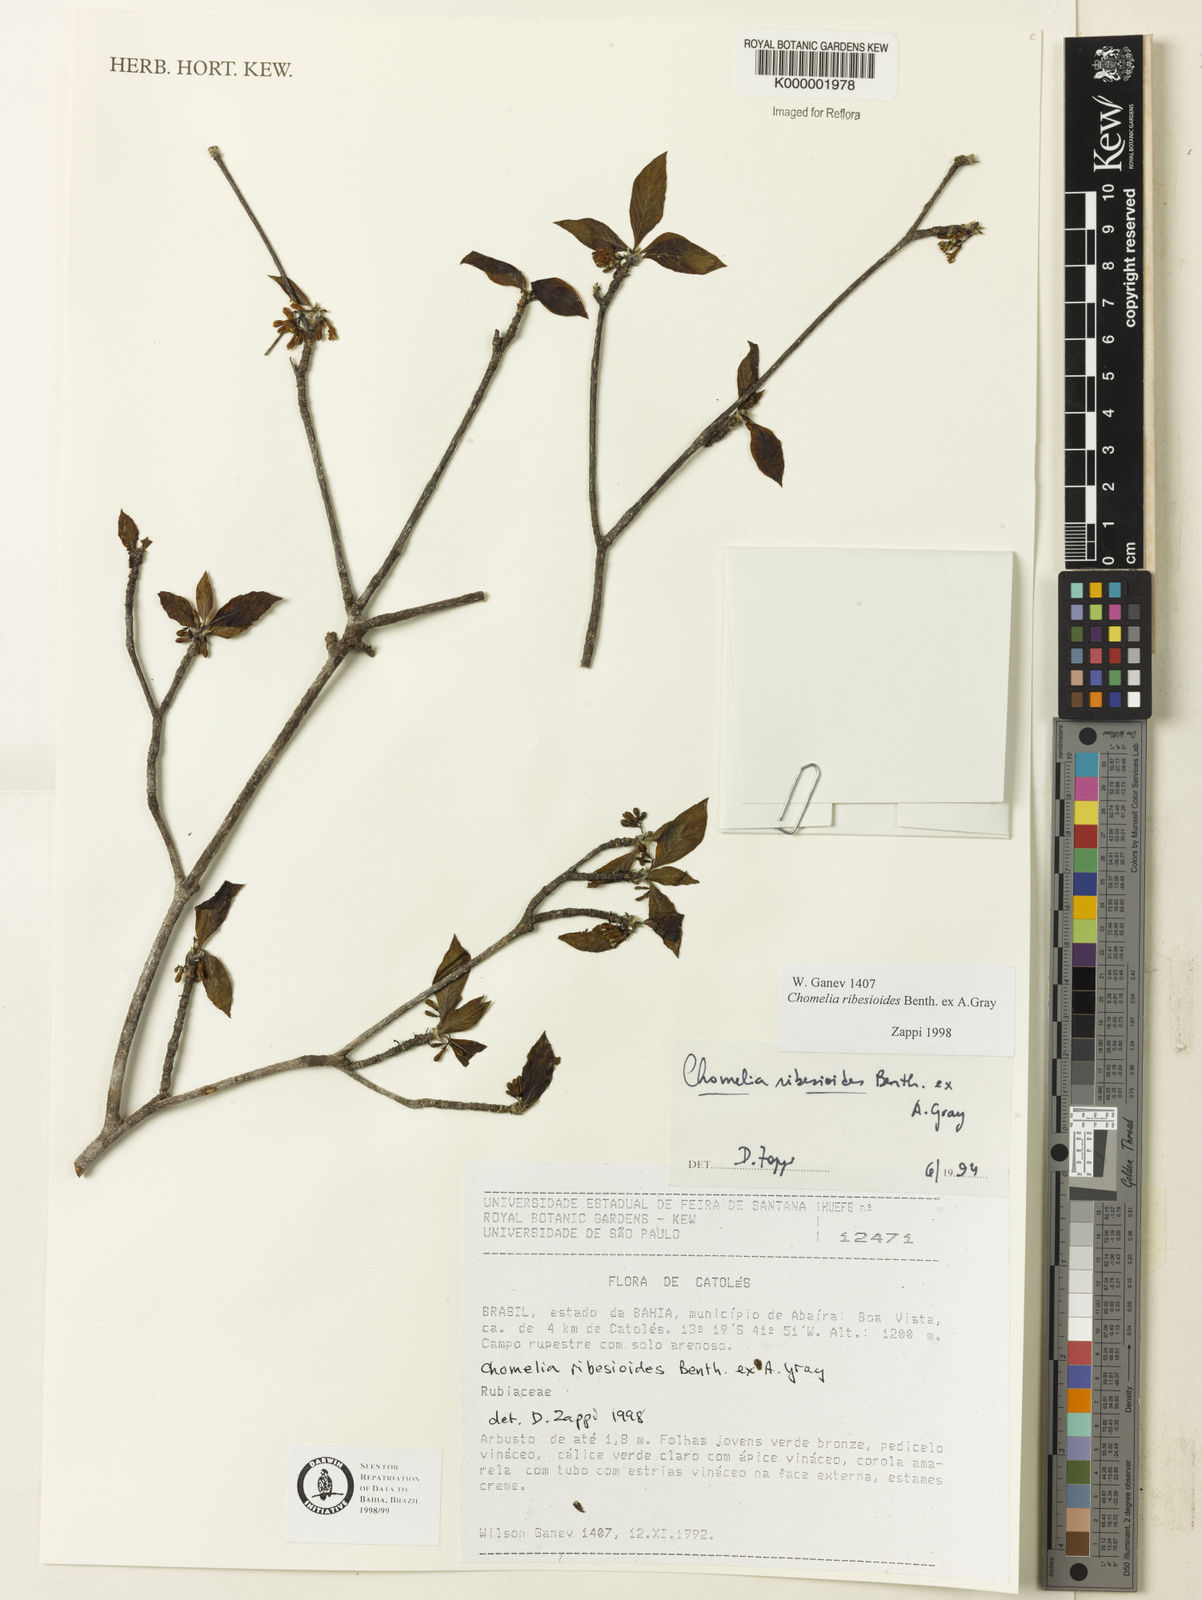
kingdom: Plantae
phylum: Tracheophyta
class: Magnoliopsida
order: Gentianales
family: Rubiaceae
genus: Chomelia
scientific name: Chomelia ribesioides
